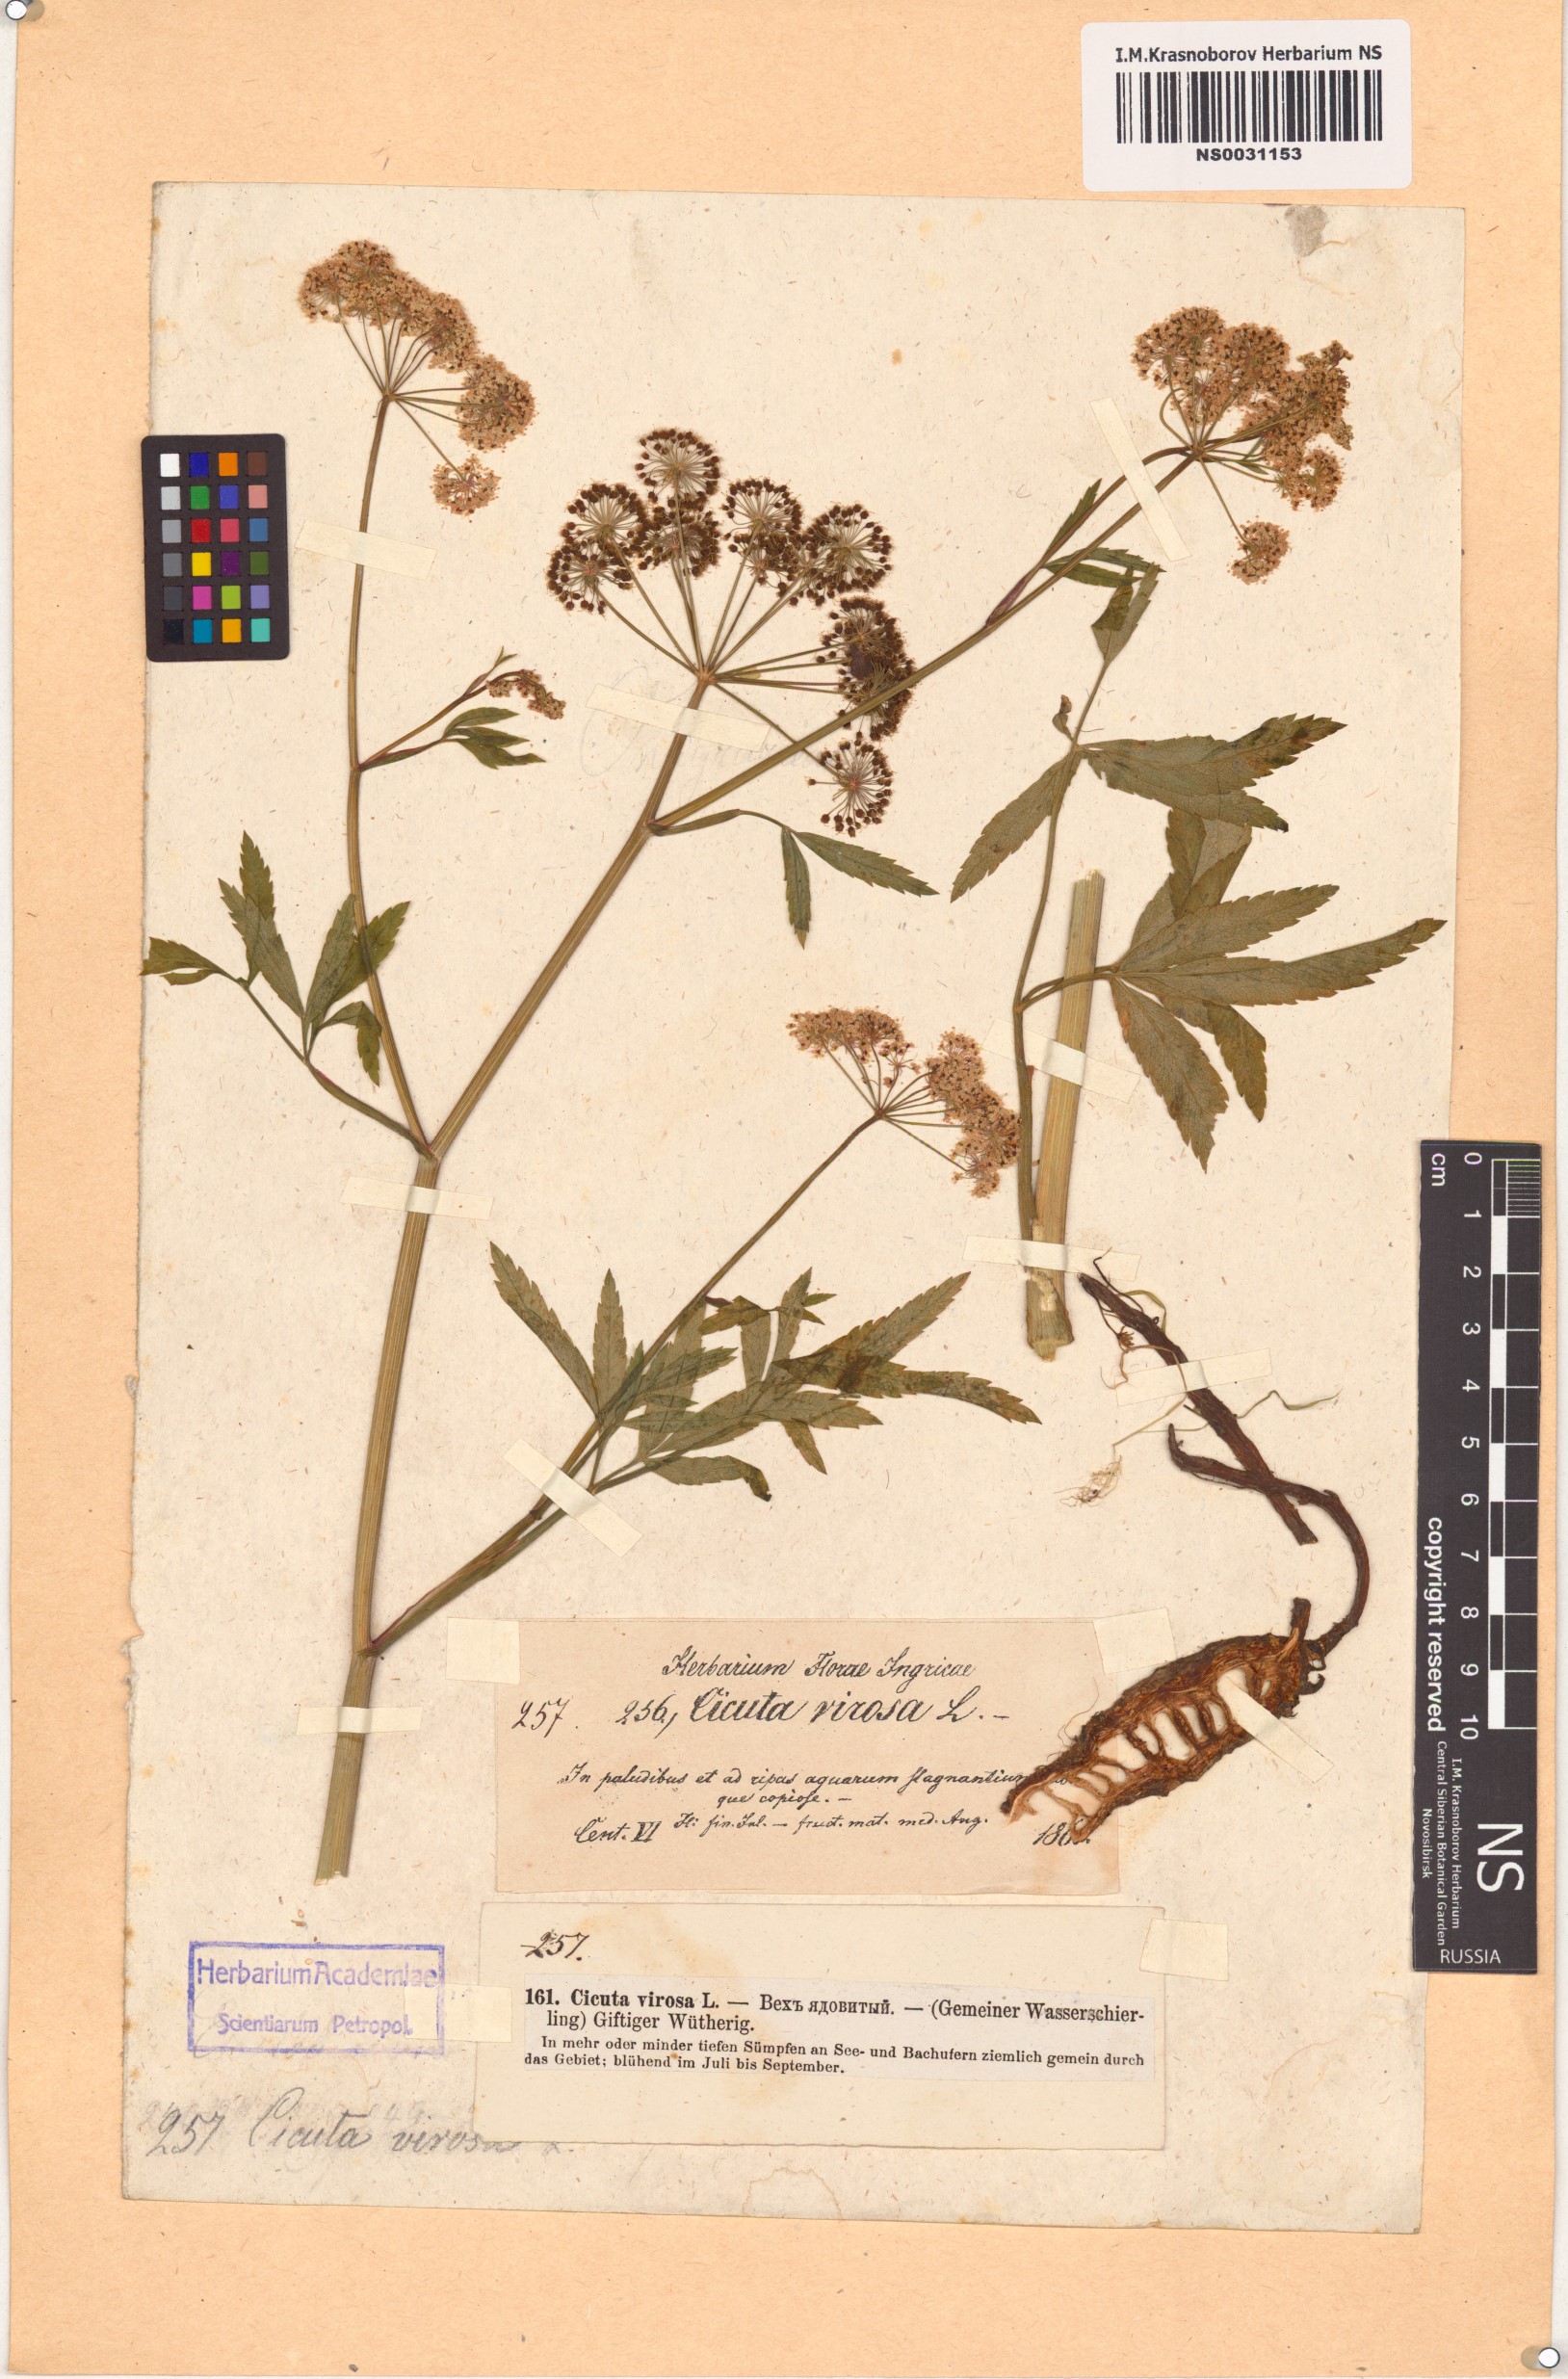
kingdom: Plantae
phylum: Tracheophyta
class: Magnoliopsida
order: Apiales
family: Apiaceae
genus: Cicuta
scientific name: Cicuta virosa
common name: Cowbane
